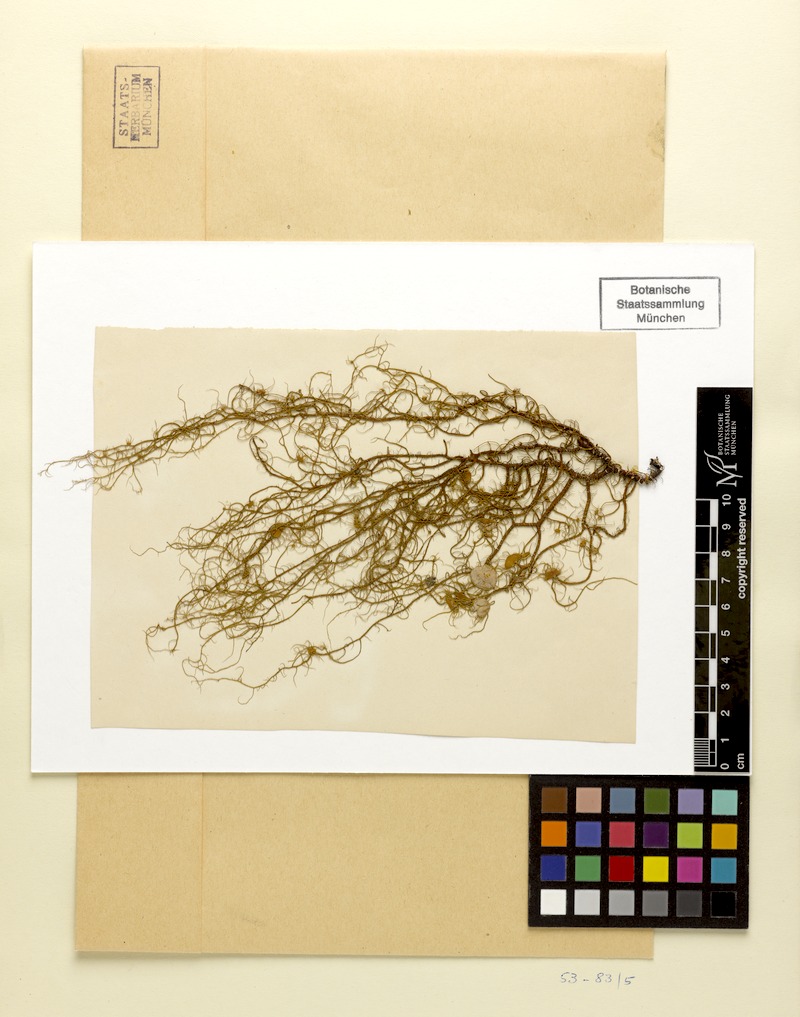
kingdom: Fungi
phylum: Ascomycota
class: Lecanoromycetes
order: Lecanorales
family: Parmeliaceae
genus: Usnea
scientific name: Usnea quasirigida
